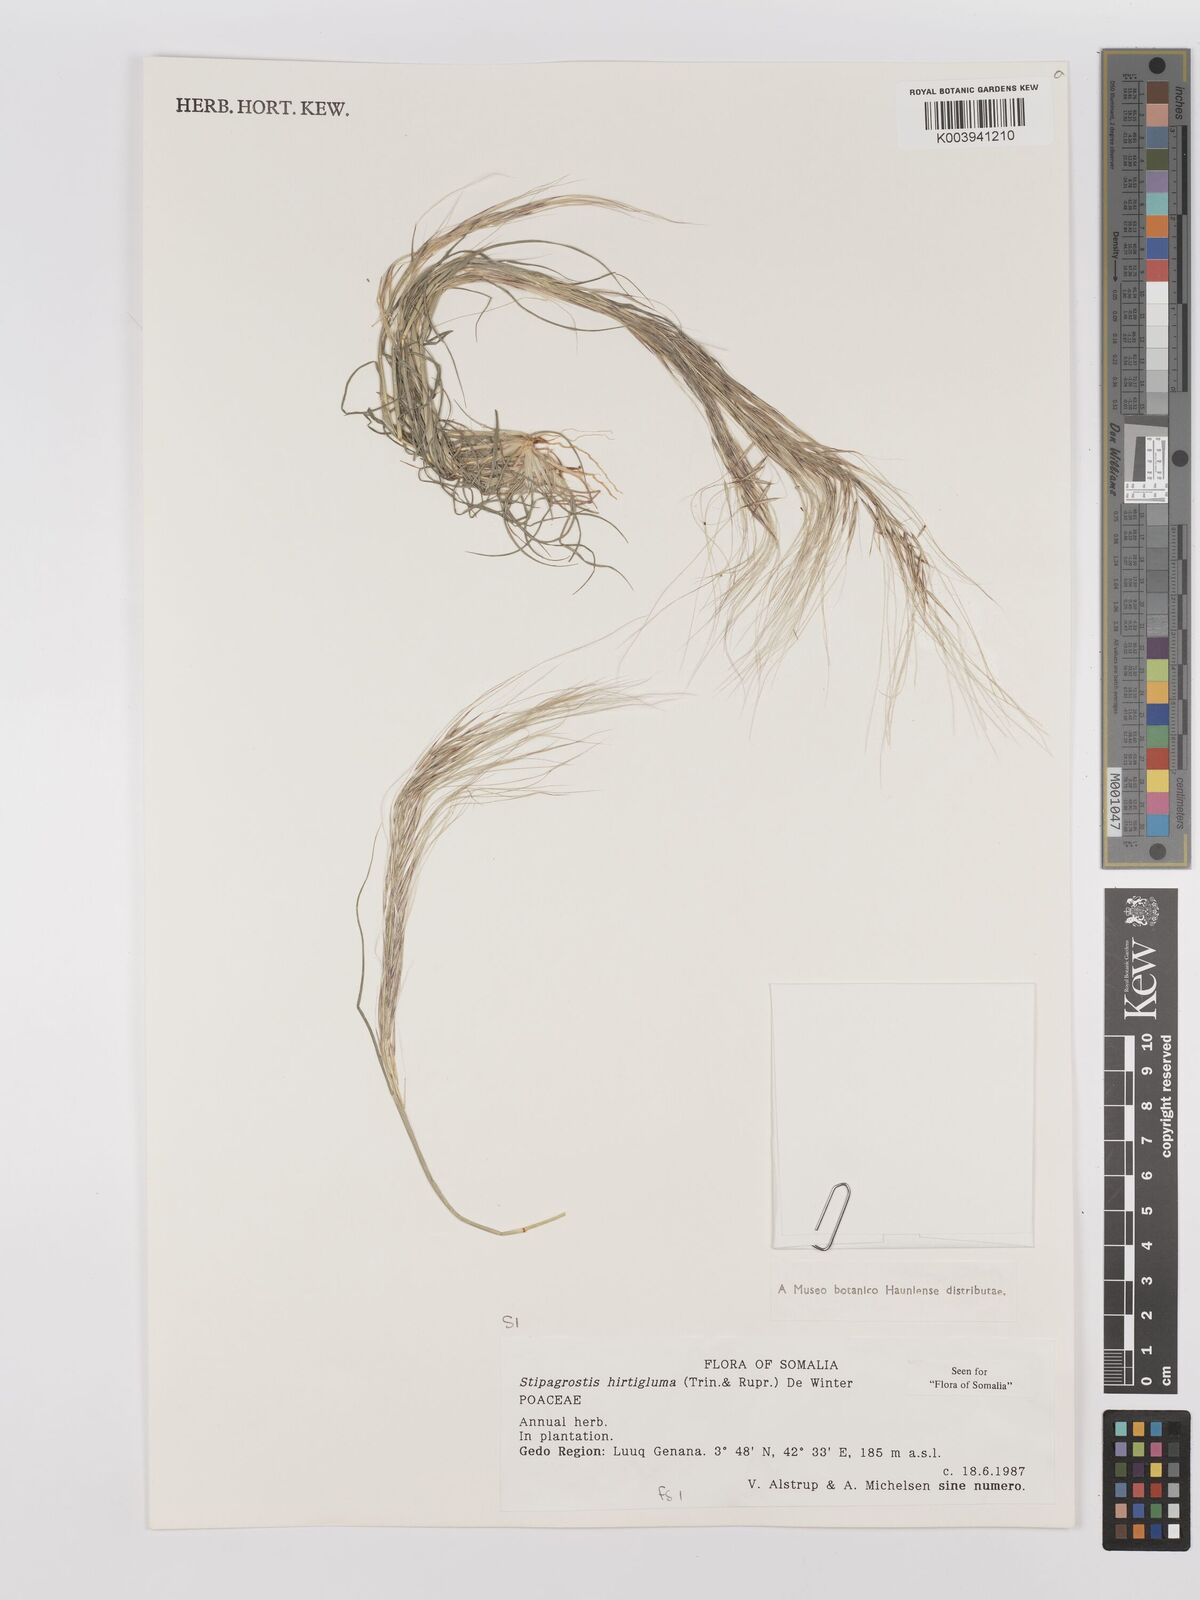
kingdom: Plantae
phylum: Tracheophyta
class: Liliopsida
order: Poales
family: Poaceae
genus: Stipagrostis
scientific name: Stipagrostis hirtigluma
